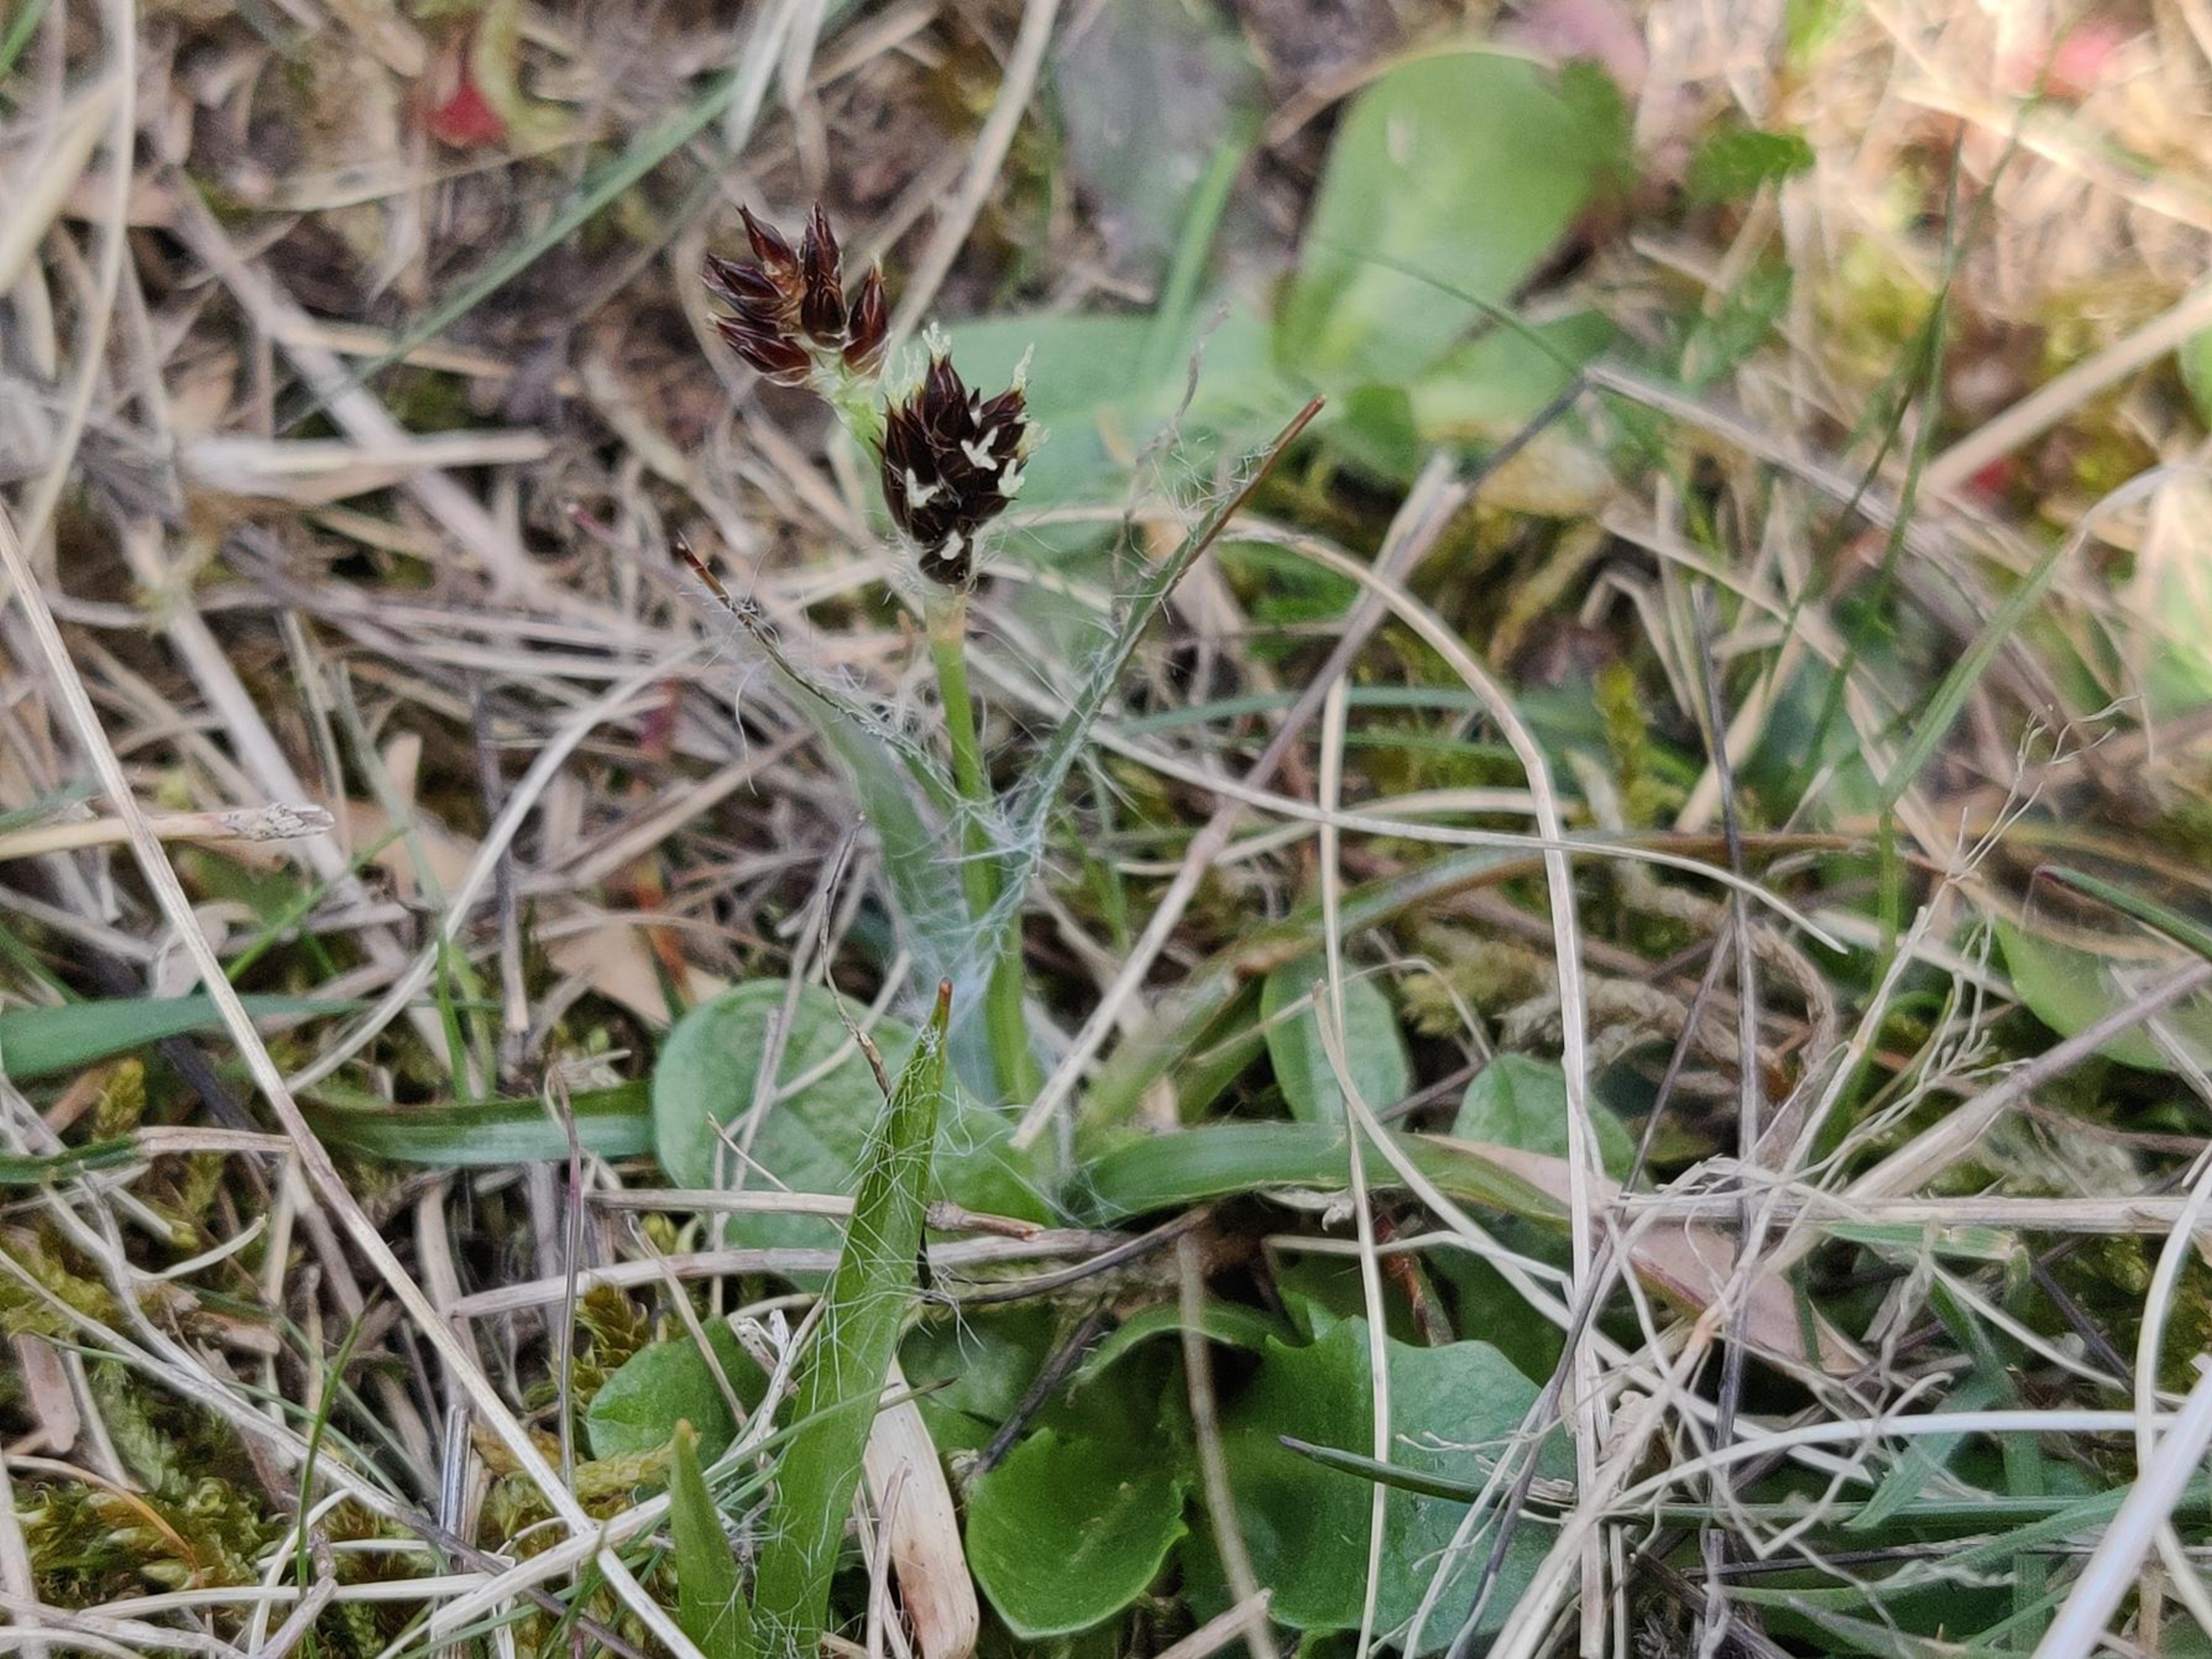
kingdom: Plantae
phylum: Tracheophyta
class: Liliopsida
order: Poales
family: Juncaceae
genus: Luzula
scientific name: Luzula campestris
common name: Mark-frytle
